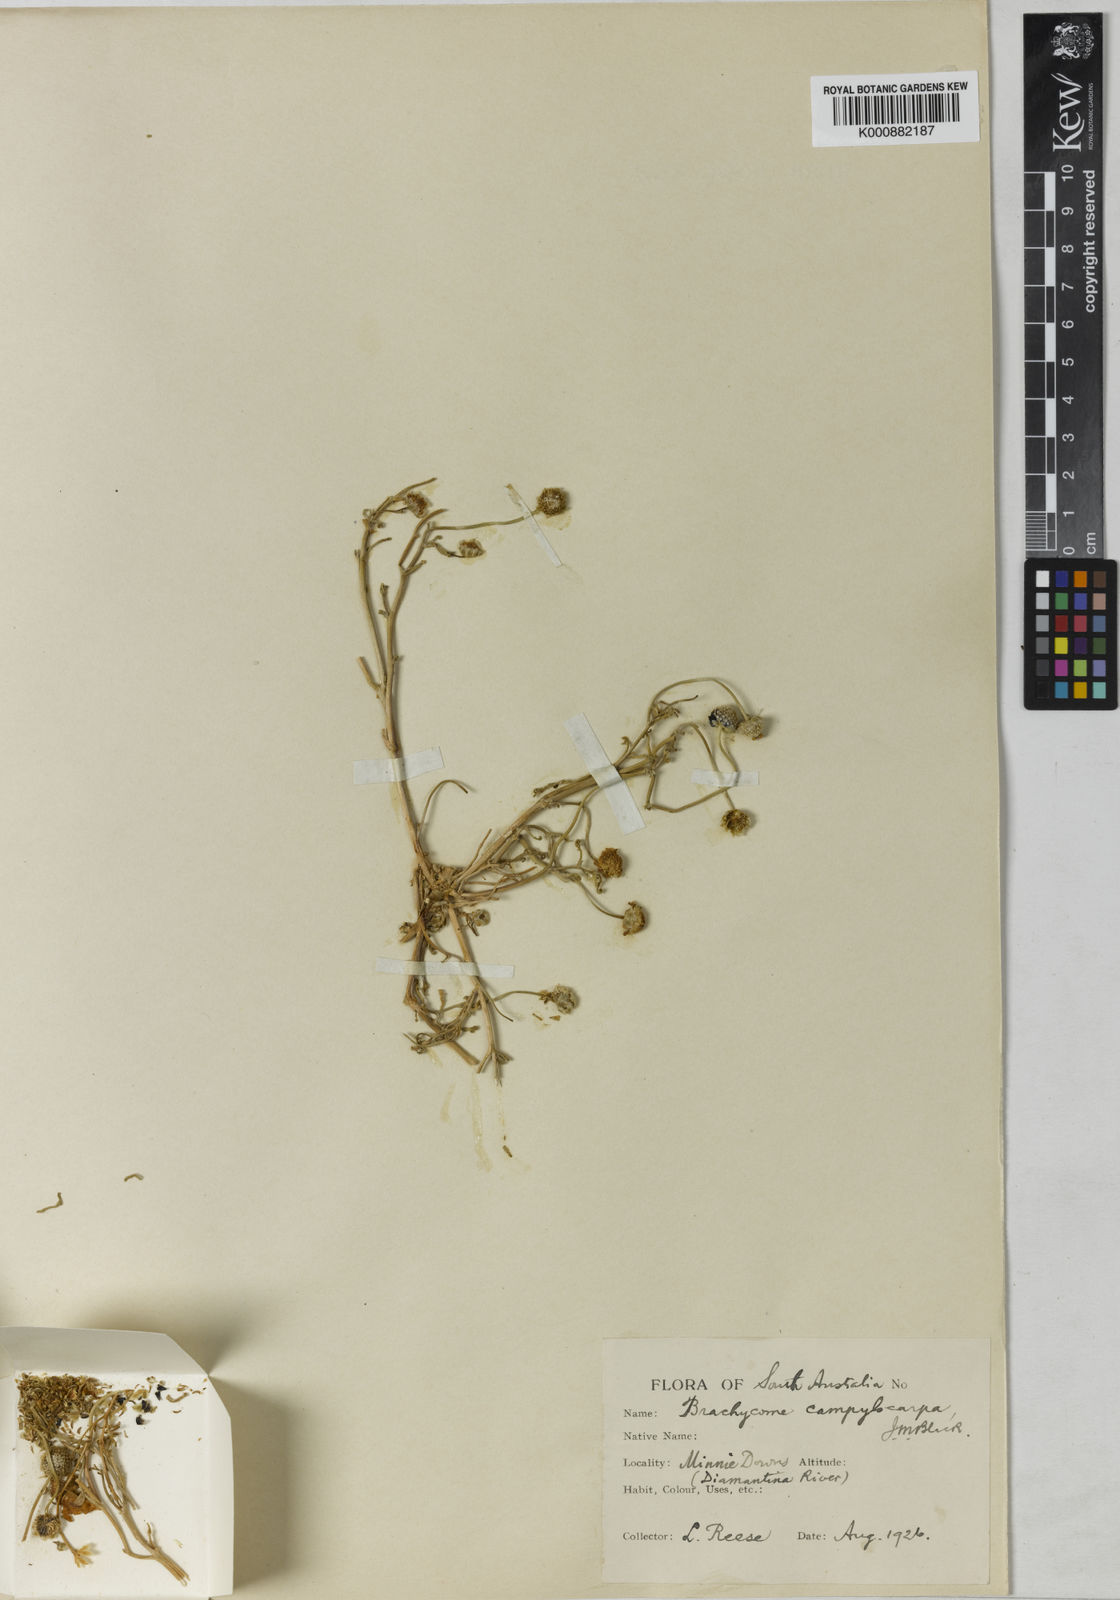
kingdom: Plantae
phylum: Tracheophyta
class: Magnoliopsida
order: Asterales
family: Asteraceae
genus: Brachyscome
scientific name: Brachyscome campylocarpa
